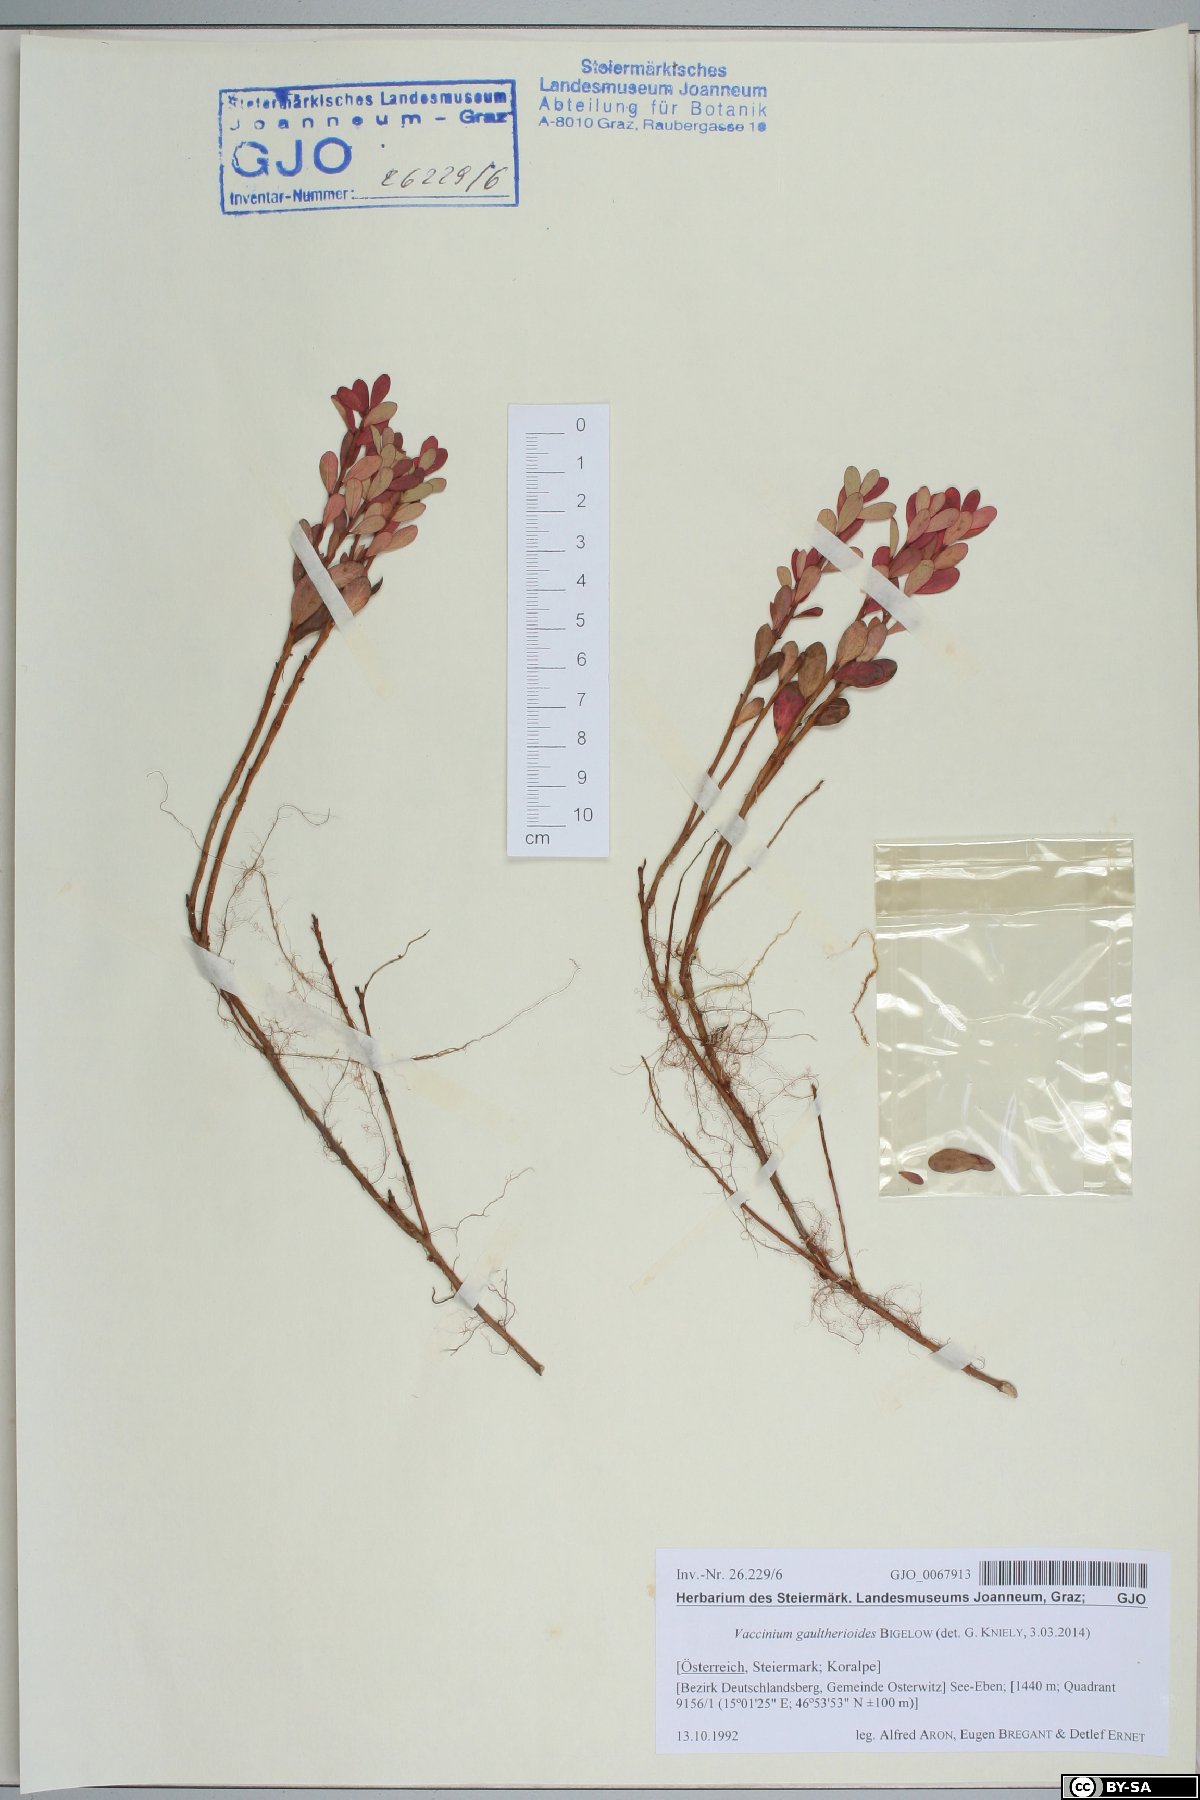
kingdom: Plantae
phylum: Tracheophyta
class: Magnoliopsida
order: Ericales
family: Ericaceae
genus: Vaccinium
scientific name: Vaccinium gaultherioides
